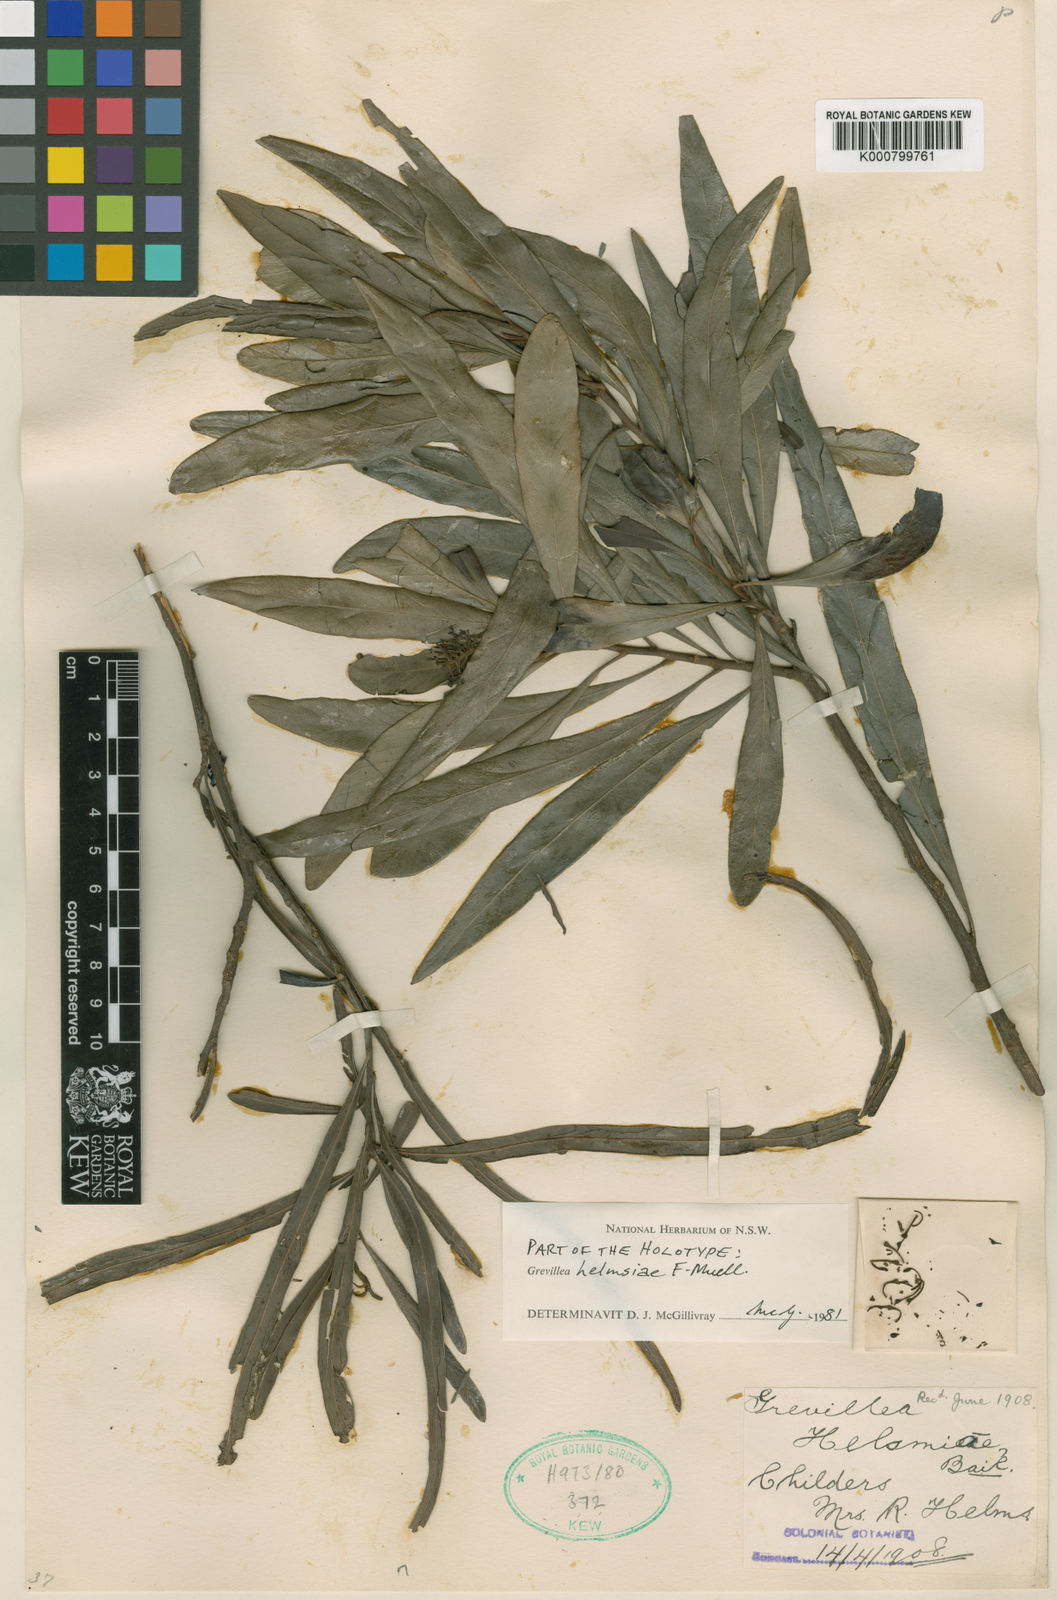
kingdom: Plantae
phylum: Tracheophyta
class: Magnoliopsida
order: Proteales
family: Proteaceae
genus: Grevillea
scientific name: Grevillea
